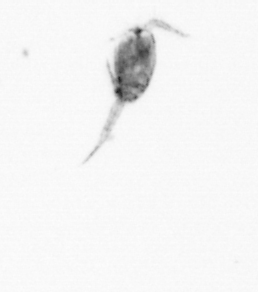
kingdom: Animalia
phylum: Arthropoda
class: Copepoda
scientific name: Copepoda
